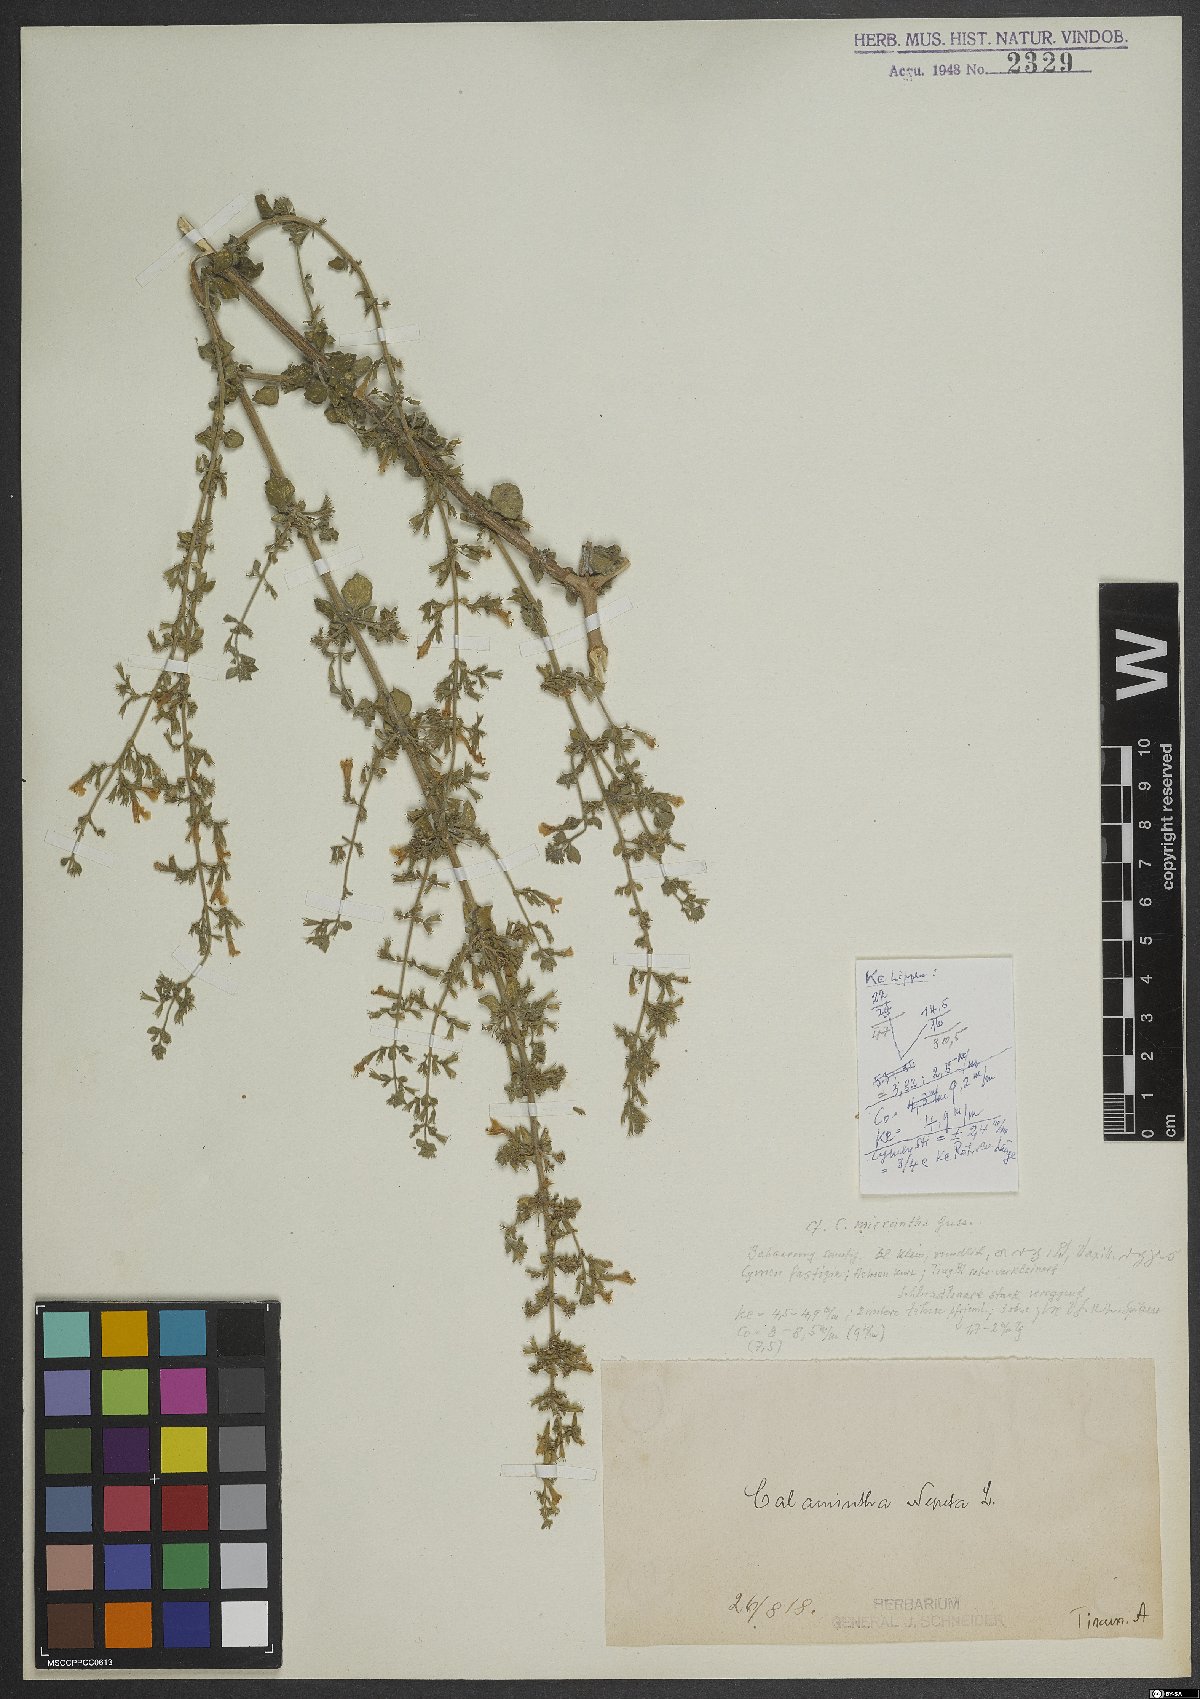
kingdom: Plantae
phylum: Tracheophyta
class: Magnoliopsida
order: Lamiales
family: Lamiaceae
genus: Clinopodium
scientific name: Clinopodium nepeta
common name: Lesser calamint
